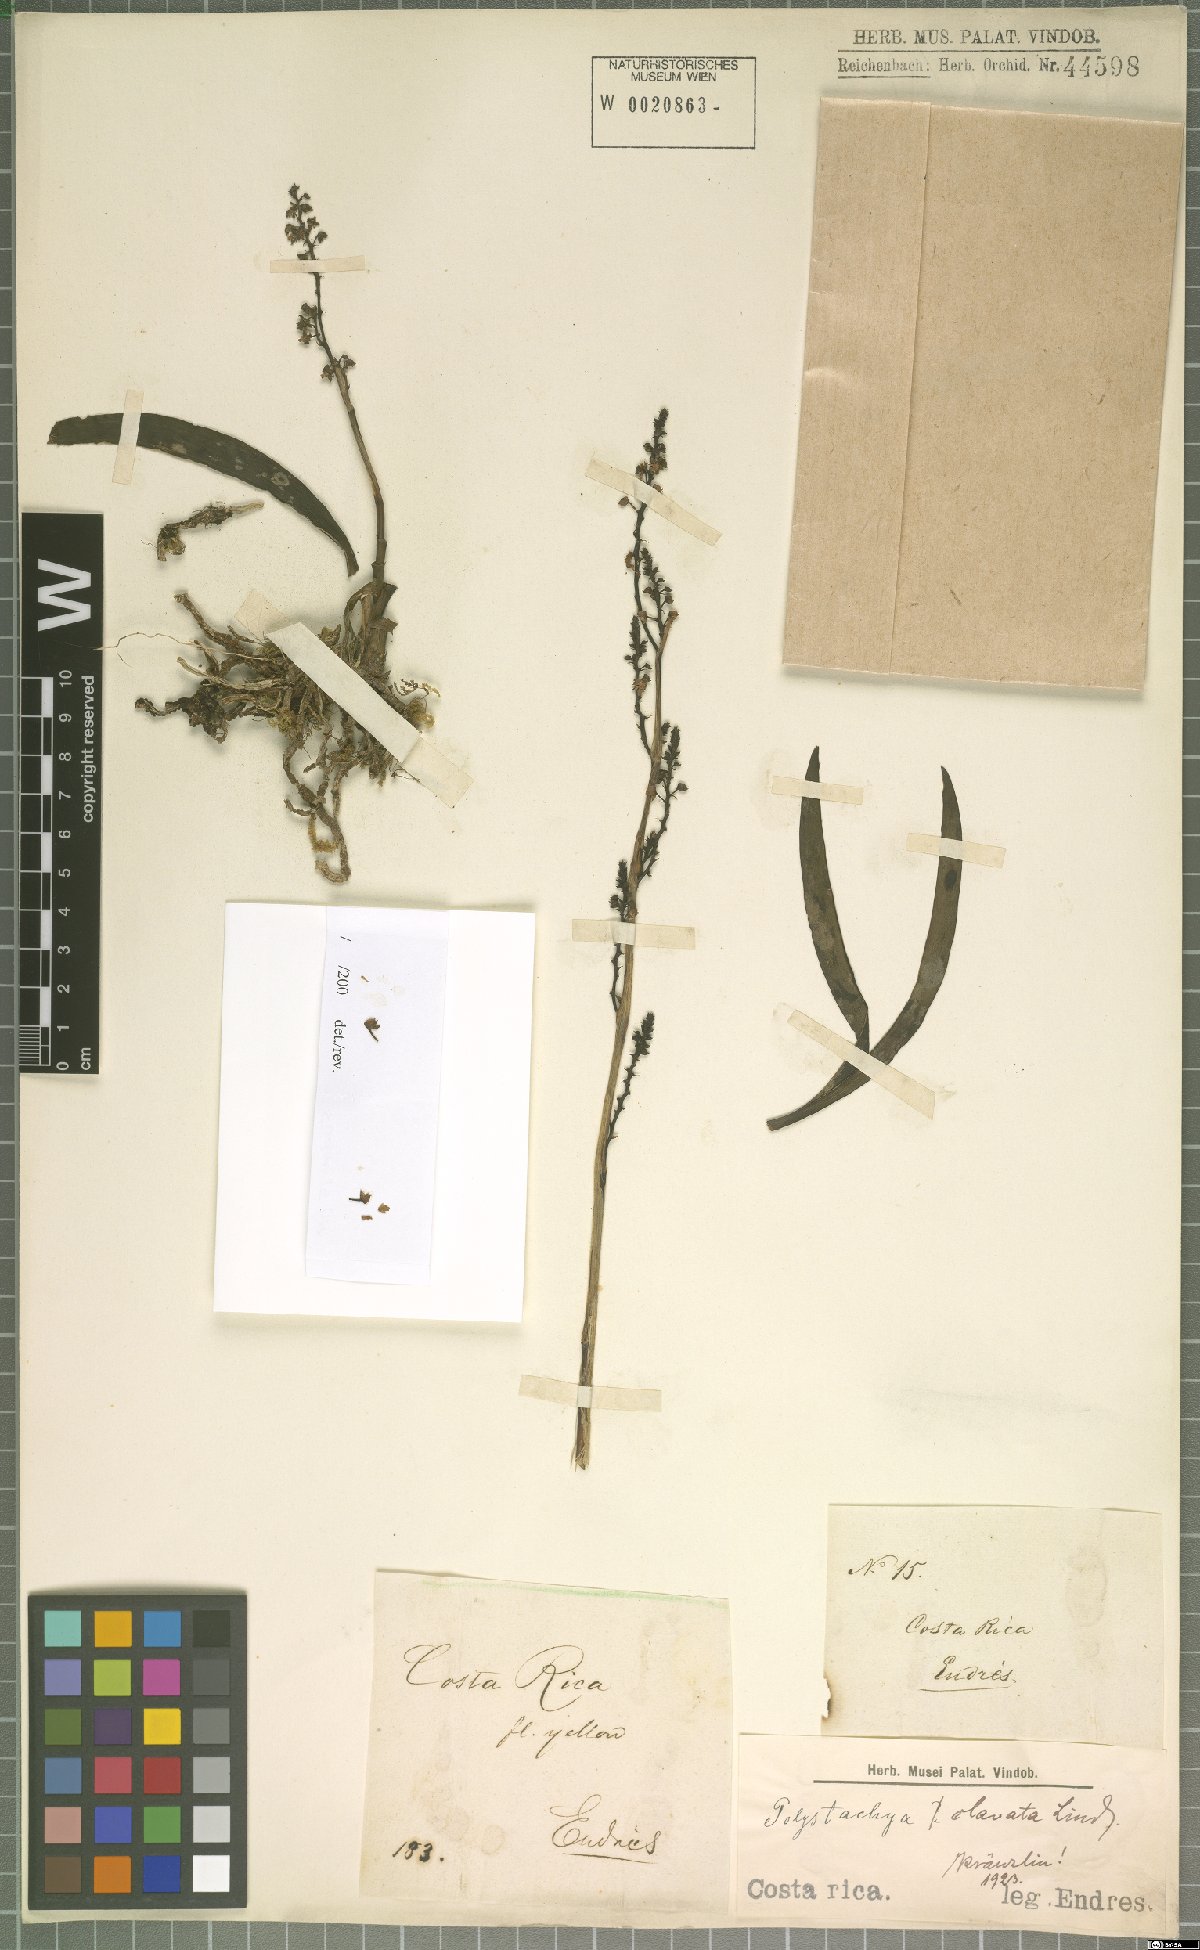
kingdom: Plantae
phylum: Tracheophyta
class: Liliopsida
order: Asparagales
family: Orchidaceae
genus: Polystachya
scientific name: Polystachya foliosa
